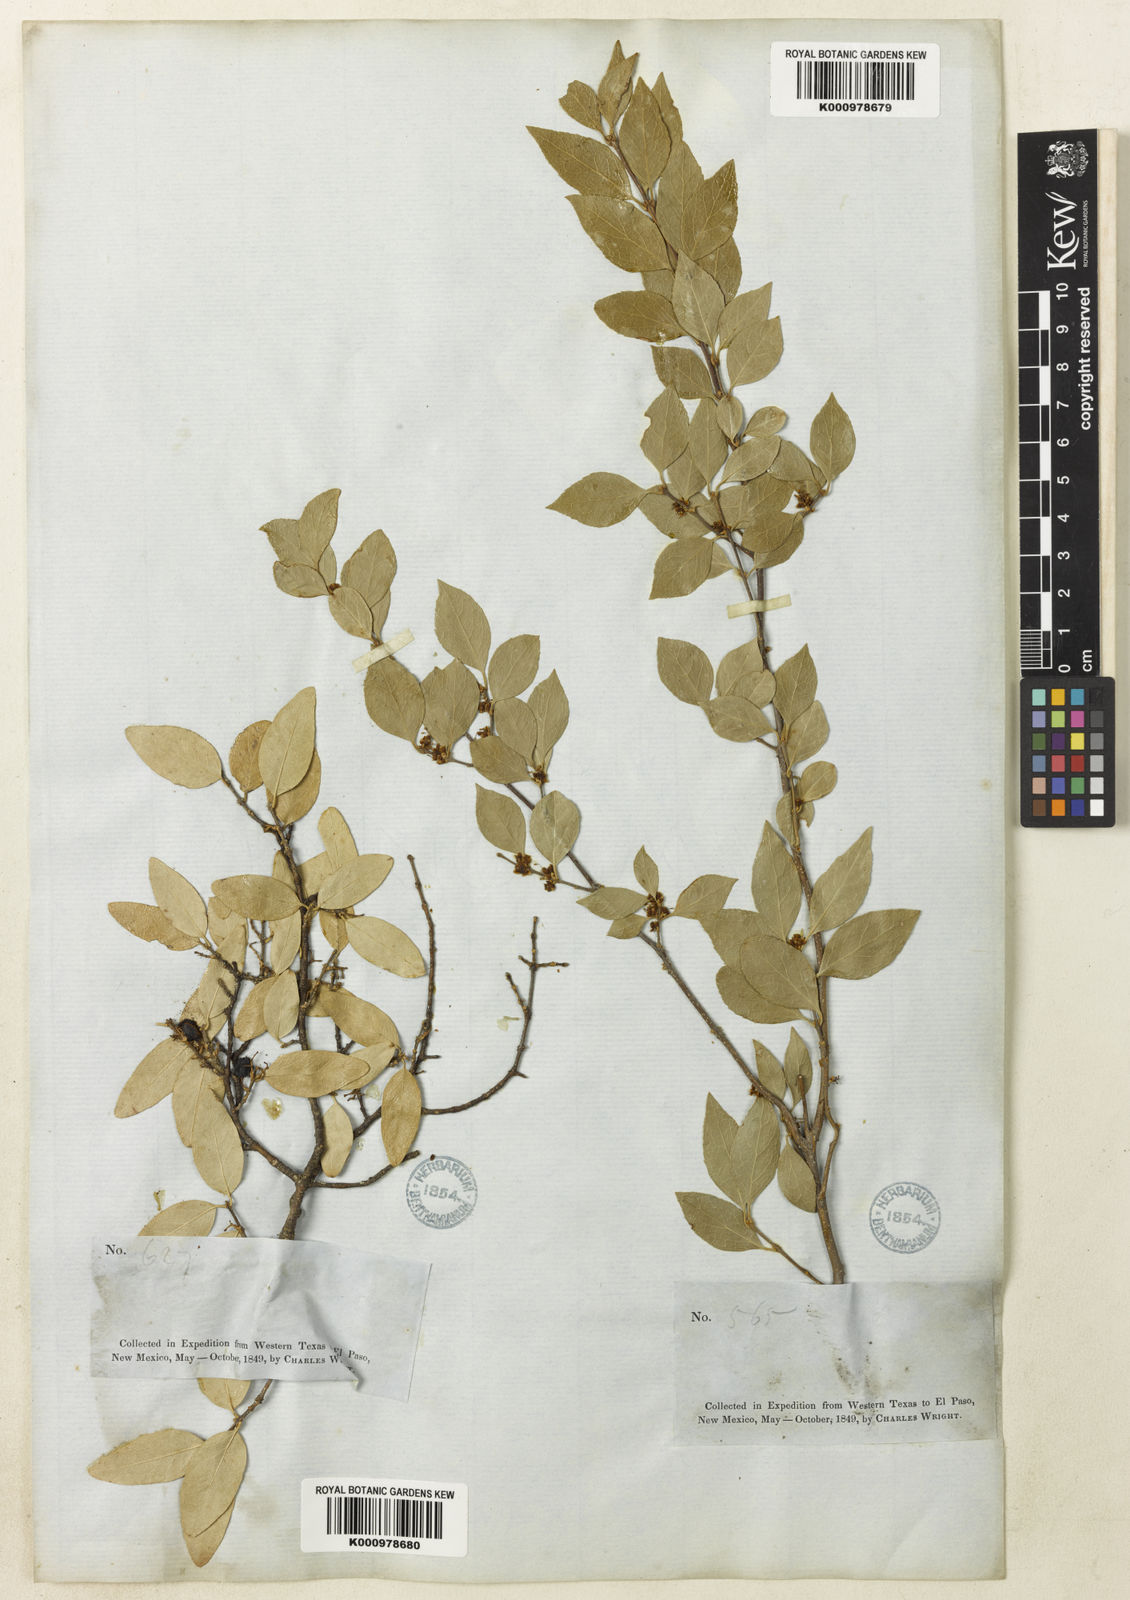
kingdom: Plantae
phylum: Tracheophyta
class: Magnoliopsida
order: Lamiales
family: Oleaceae
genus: Forestiera
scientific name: Forestiera reticulata
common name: Netleaf swamp-privet
